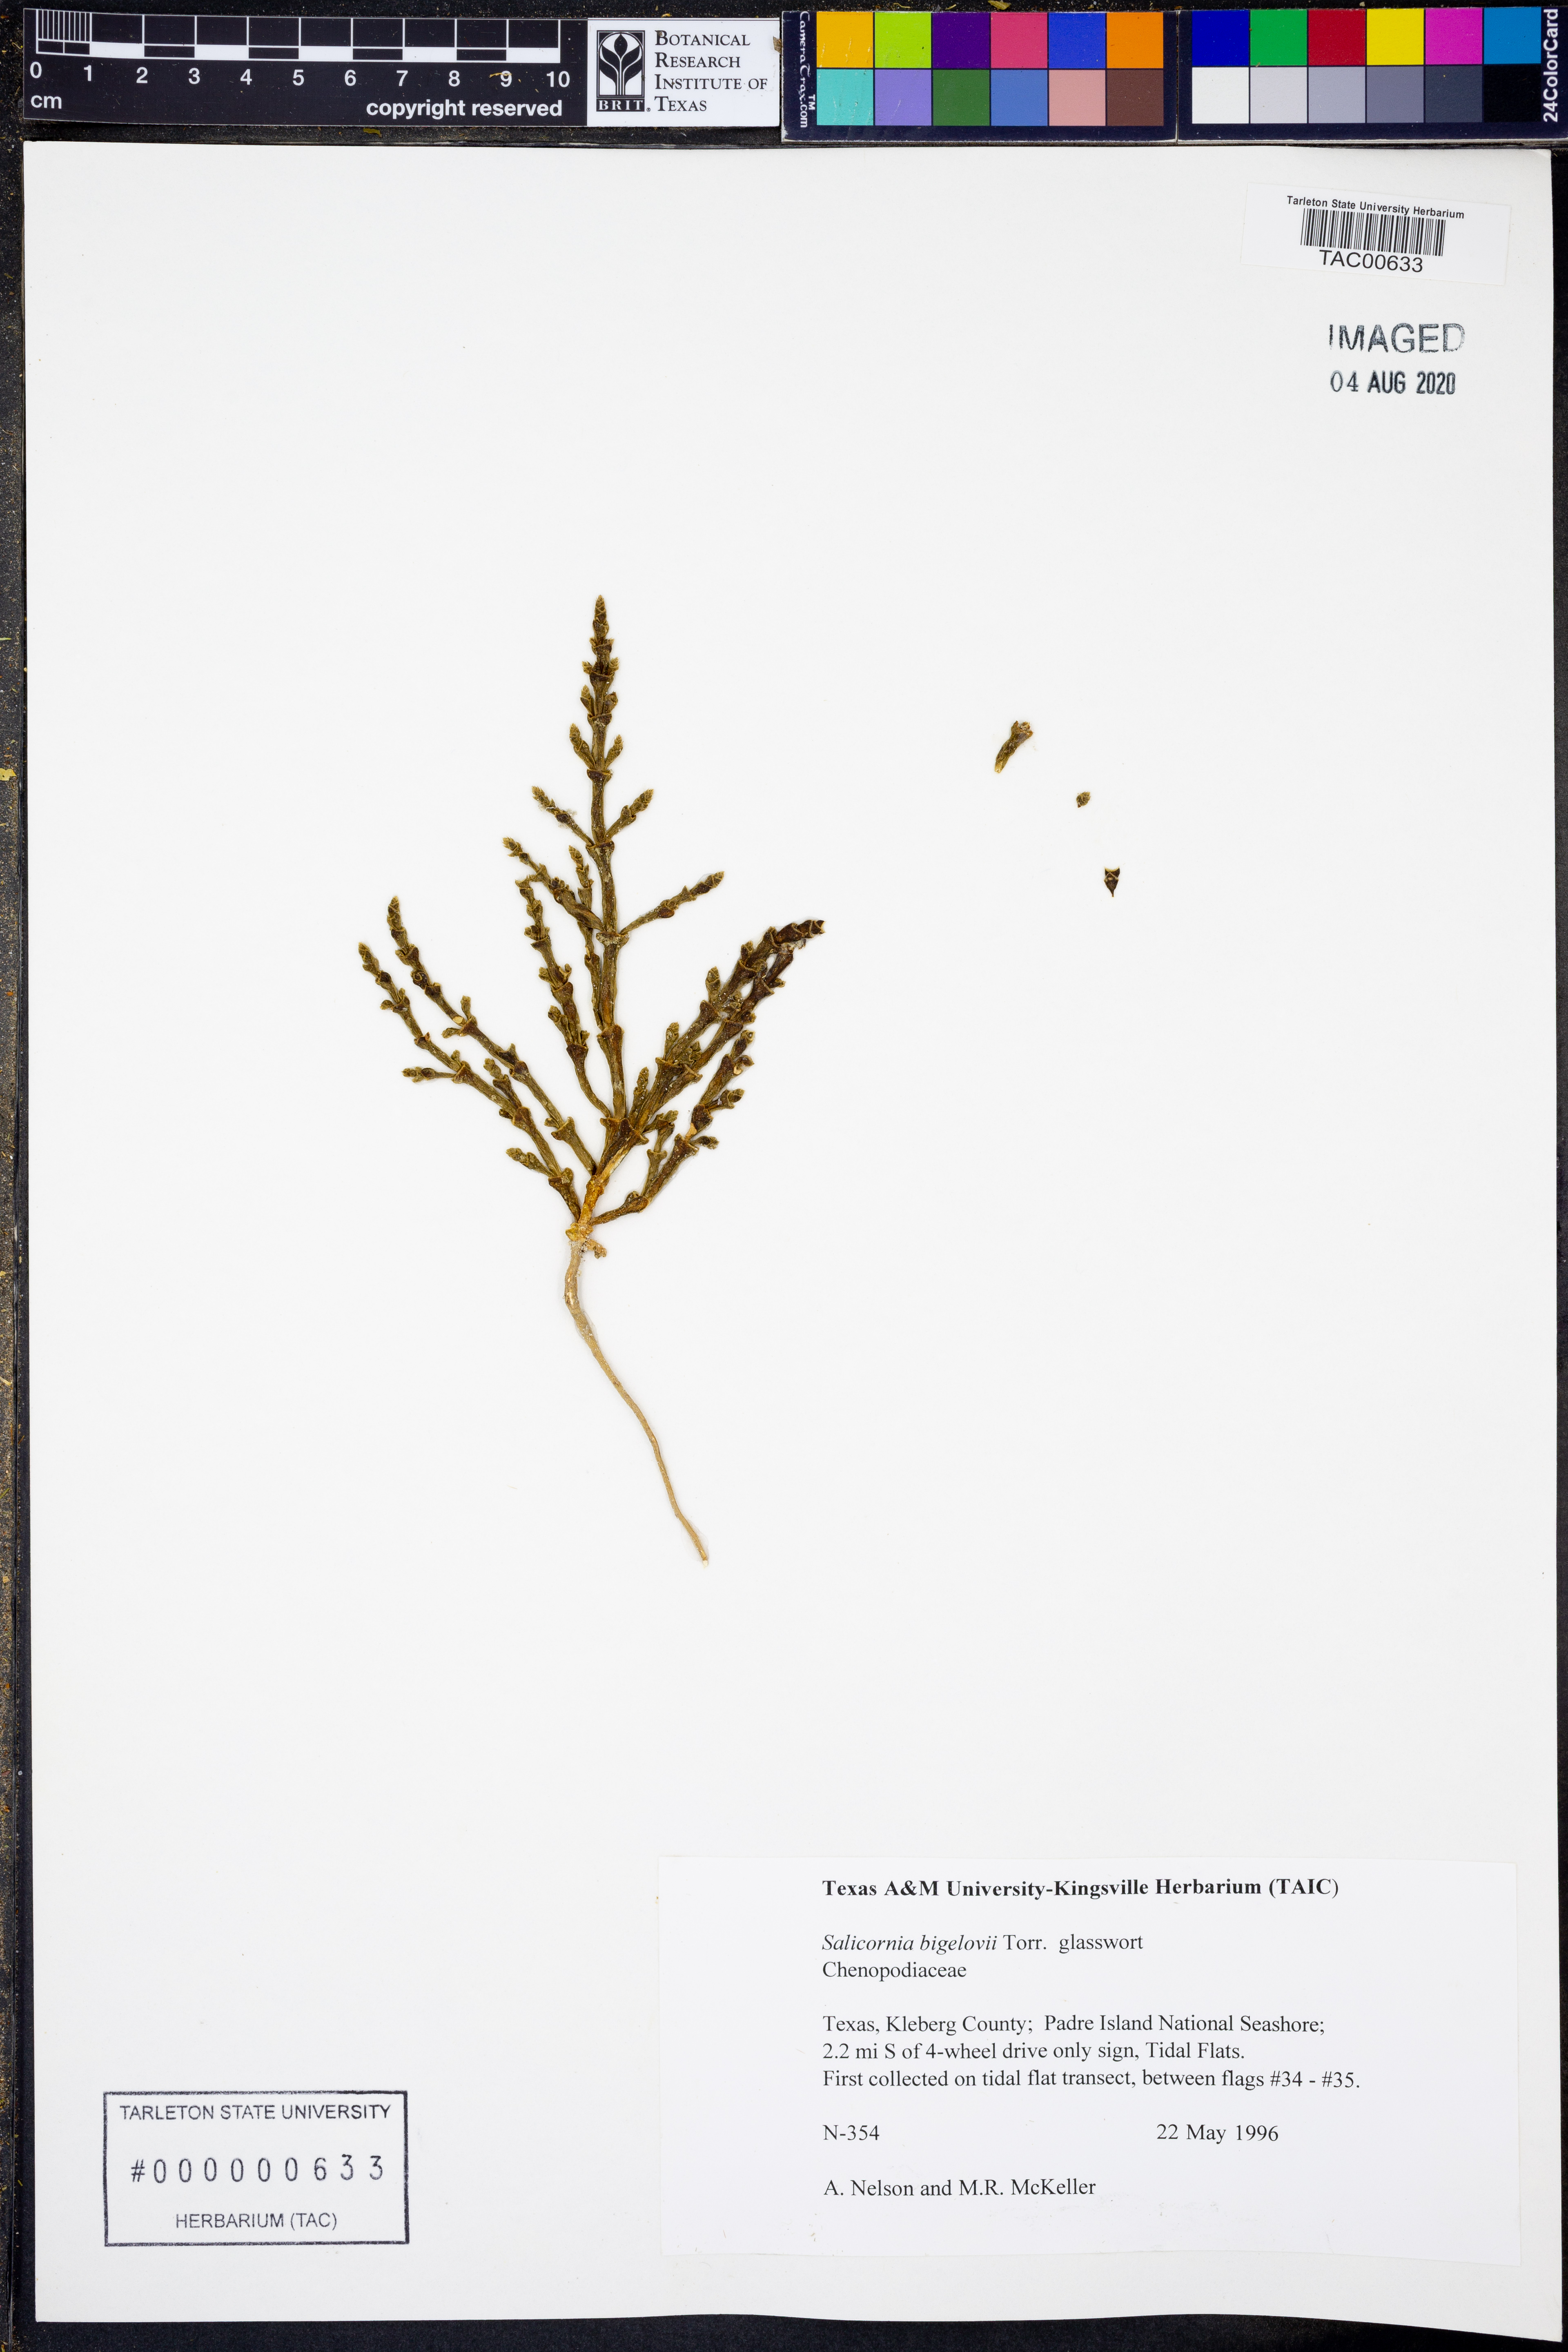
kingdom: Plantae
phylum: Tracheophyta
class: Magnoliopsida
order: Caryophyllales
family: Amaranthaceae
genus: Salicornia
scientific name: Salicornia bigelovii
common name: Dwarf glasswort
